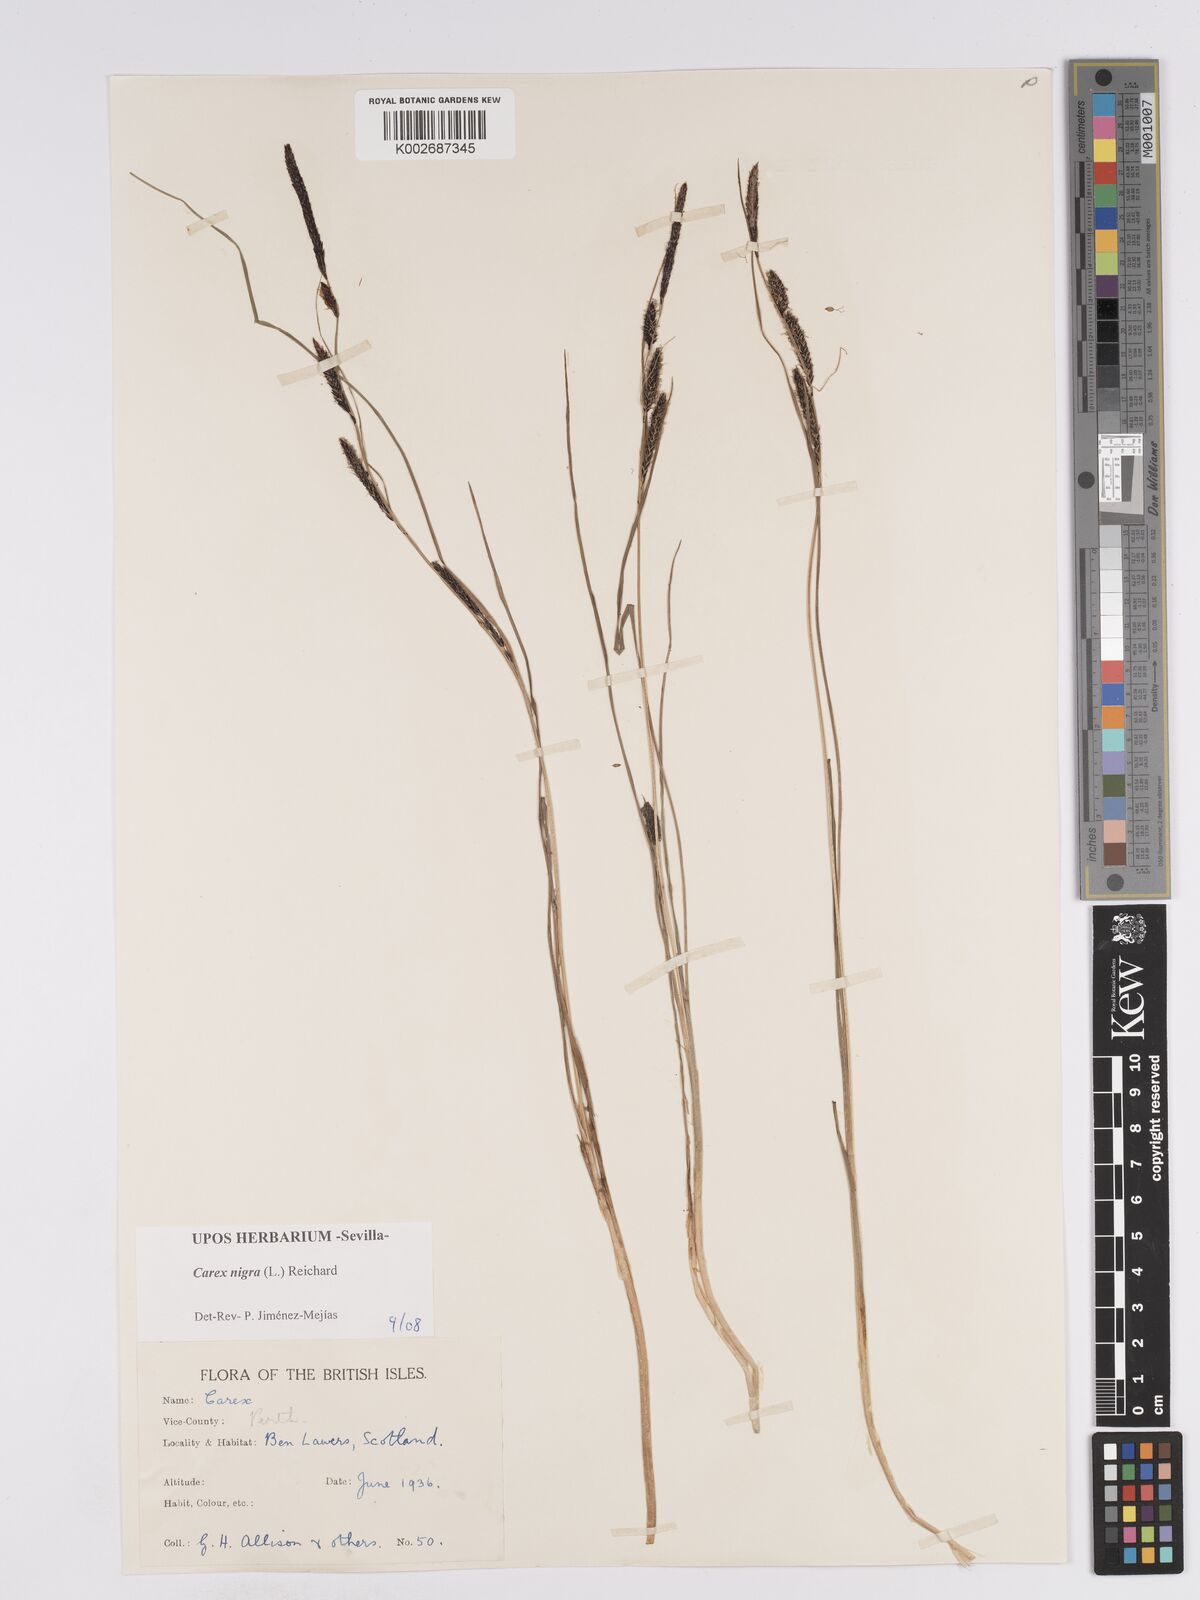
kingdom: Plantae
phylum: Tracheophyta
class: Liliopsida
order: Poales
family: Cyperaceae
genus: Carex
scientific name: Carex nigra
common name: Common sedge
